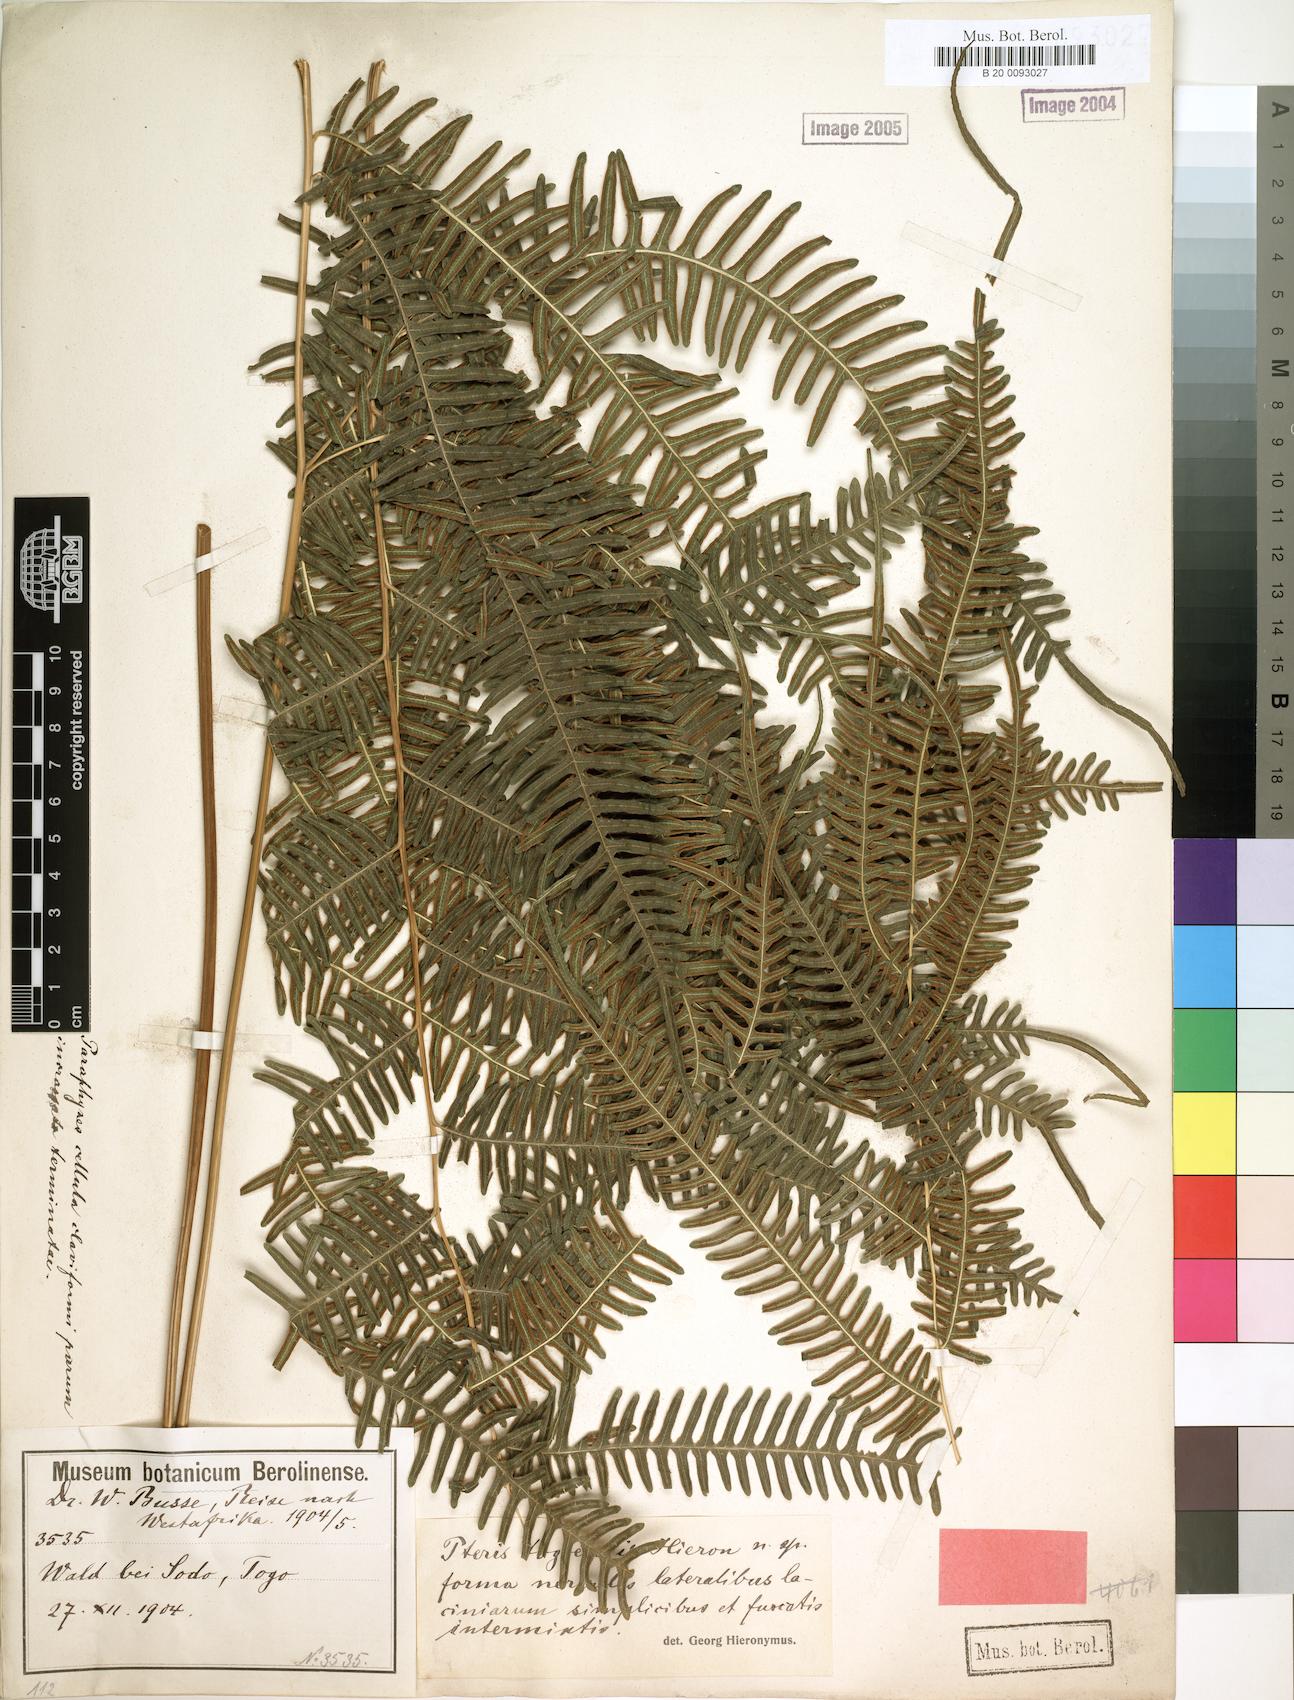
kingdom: Plantae
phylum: Tracheophyta
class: Polypodiopsida
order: Polypodiales
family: Pteridaceae
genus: Pteris
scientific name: Pteris togoensis
